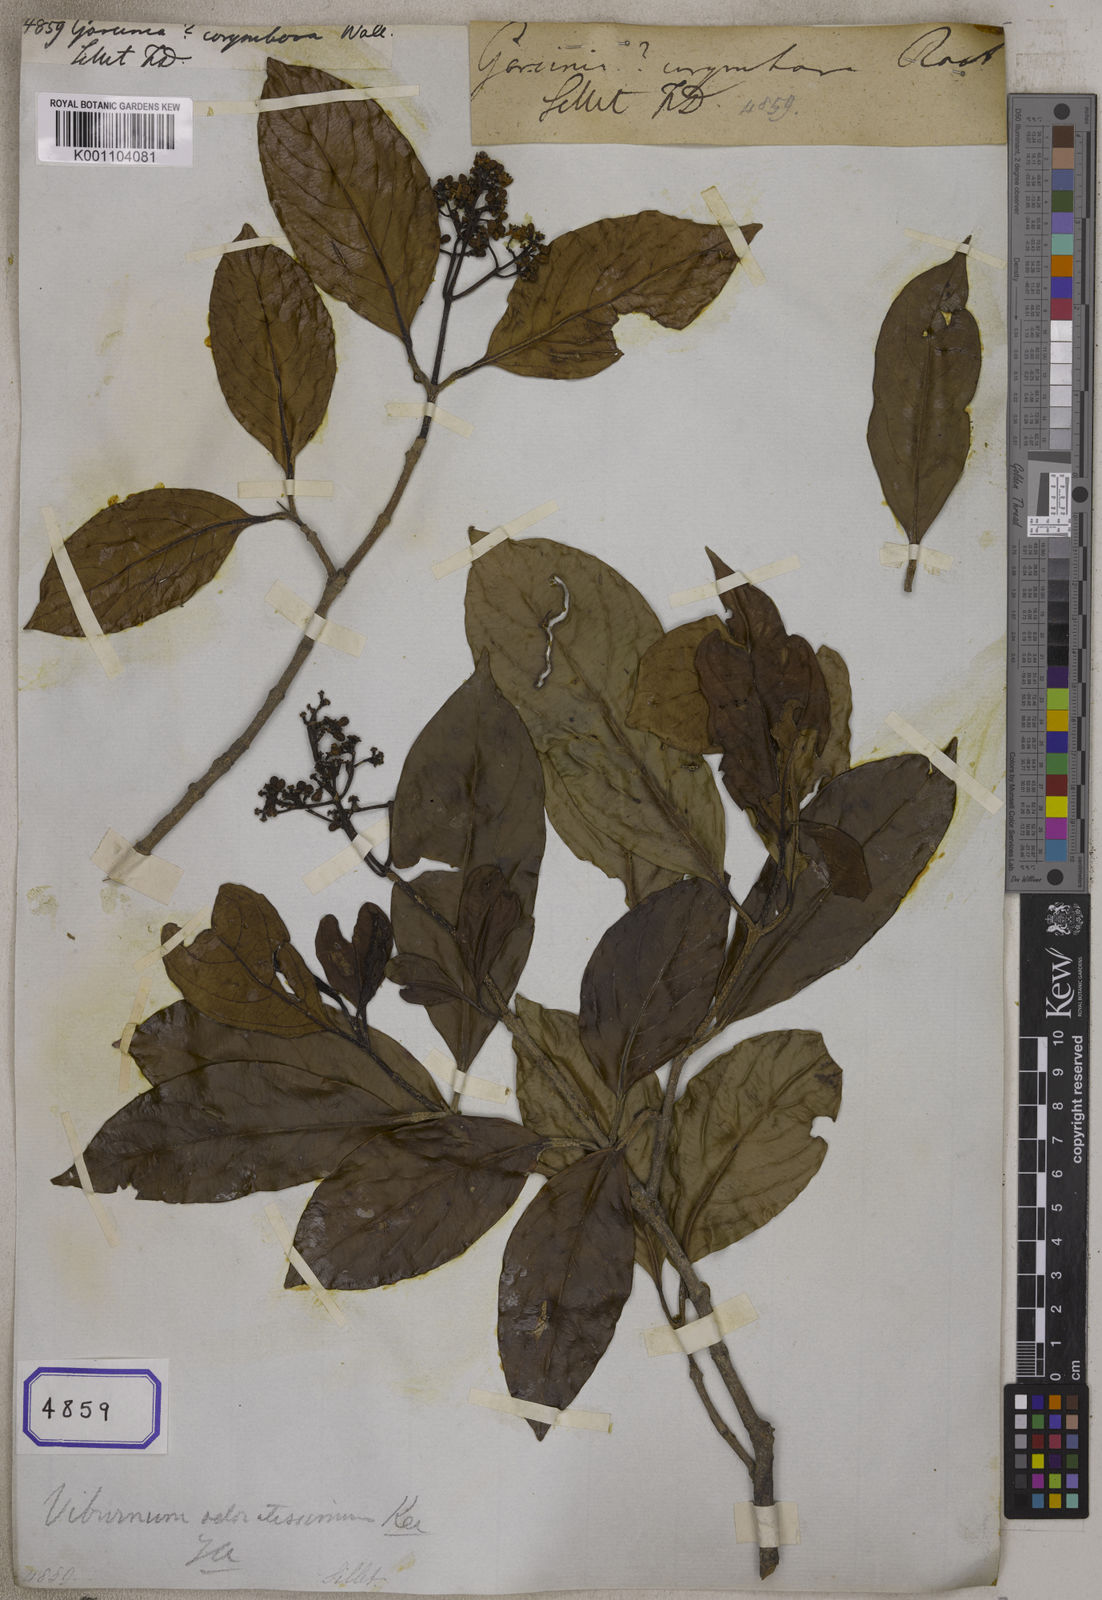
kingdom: Plantae
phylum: Tracheophyta
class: Magnoliopsida
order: Malpighiales
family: Clusiaceae
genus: Garcinia
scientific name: Garcinia
